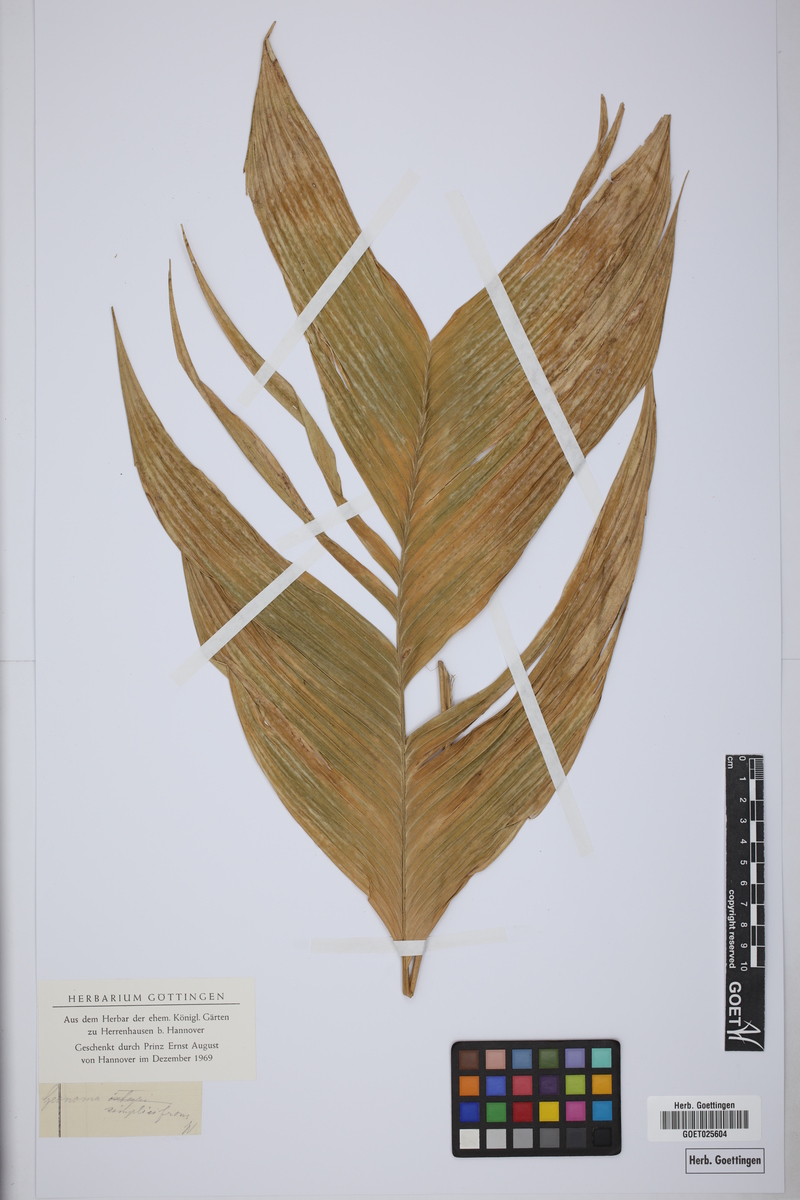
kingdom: Plantae
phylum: Tracheophyta
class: Liliopsida
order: Arecales
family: Arecaceae
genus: Geonoma
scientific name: Geonoma simplicifrons
